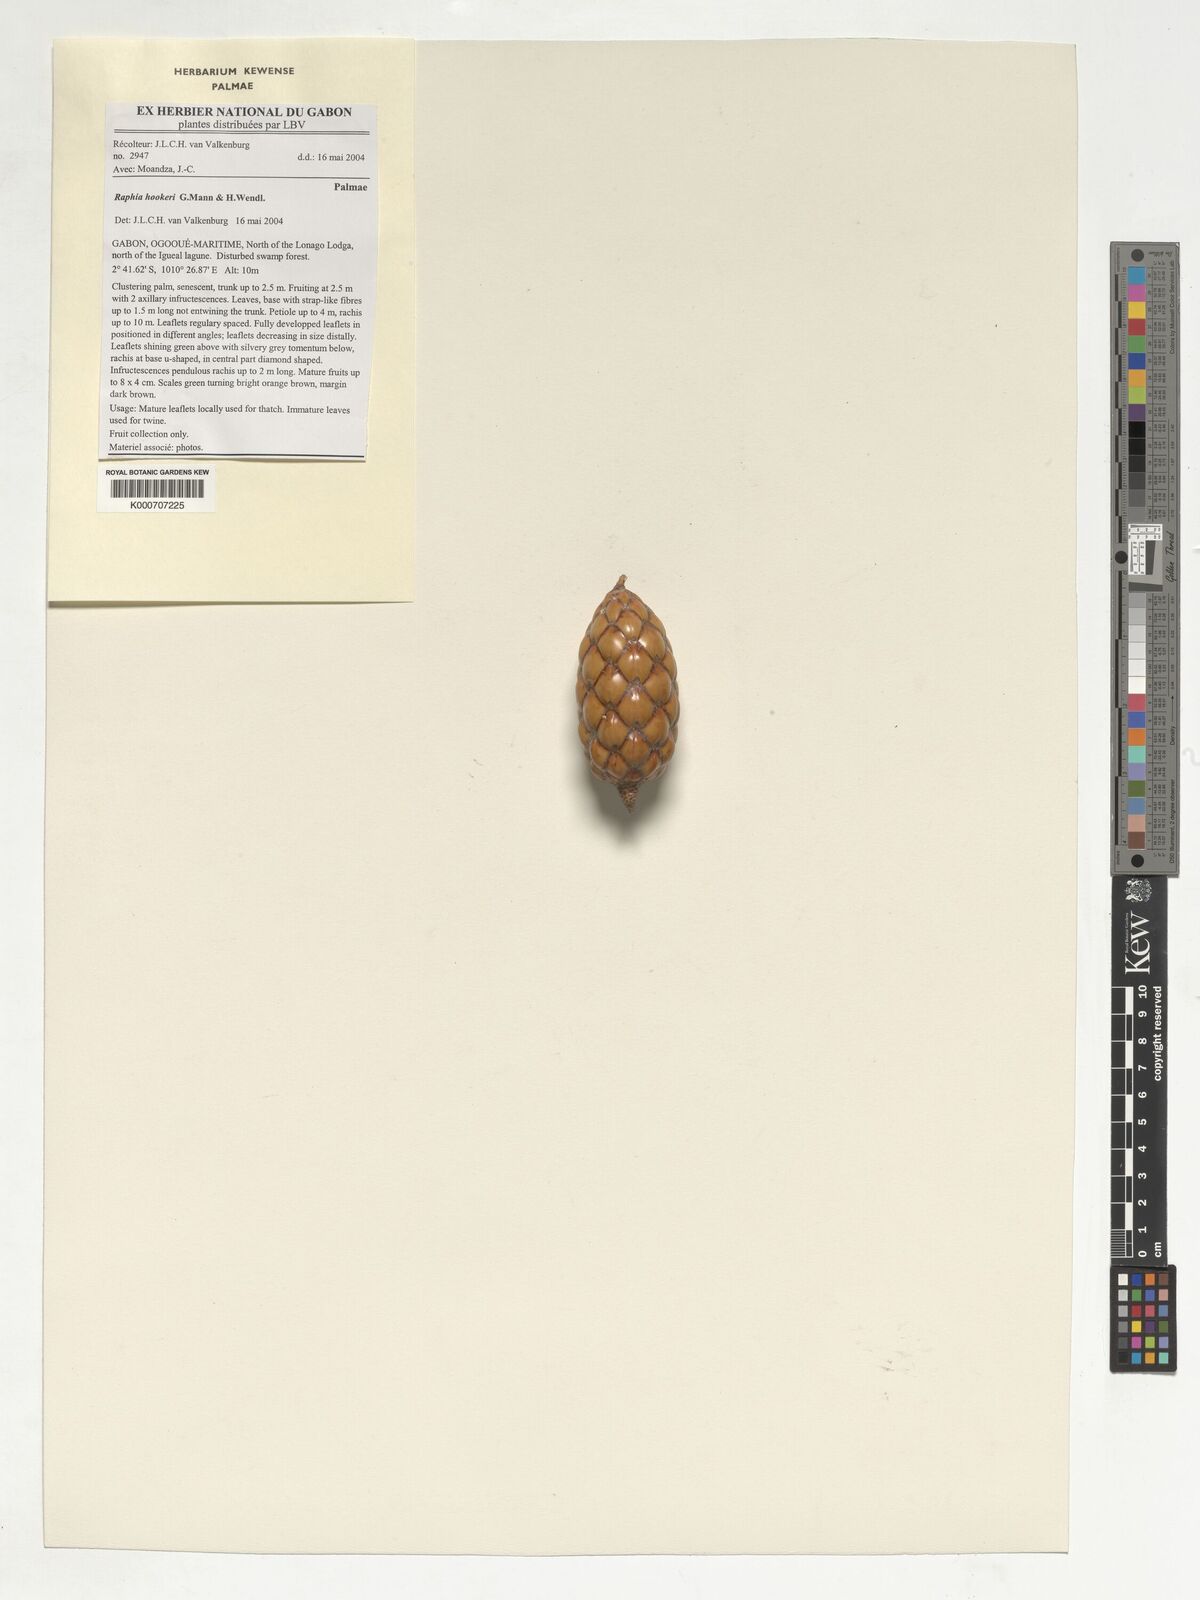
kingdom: Plantae
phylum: Tracheophyta
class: Liliopsida
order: Arecales
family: Arecaceae
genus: Raphia
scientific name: Raphia hookeri
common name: Wine palm
